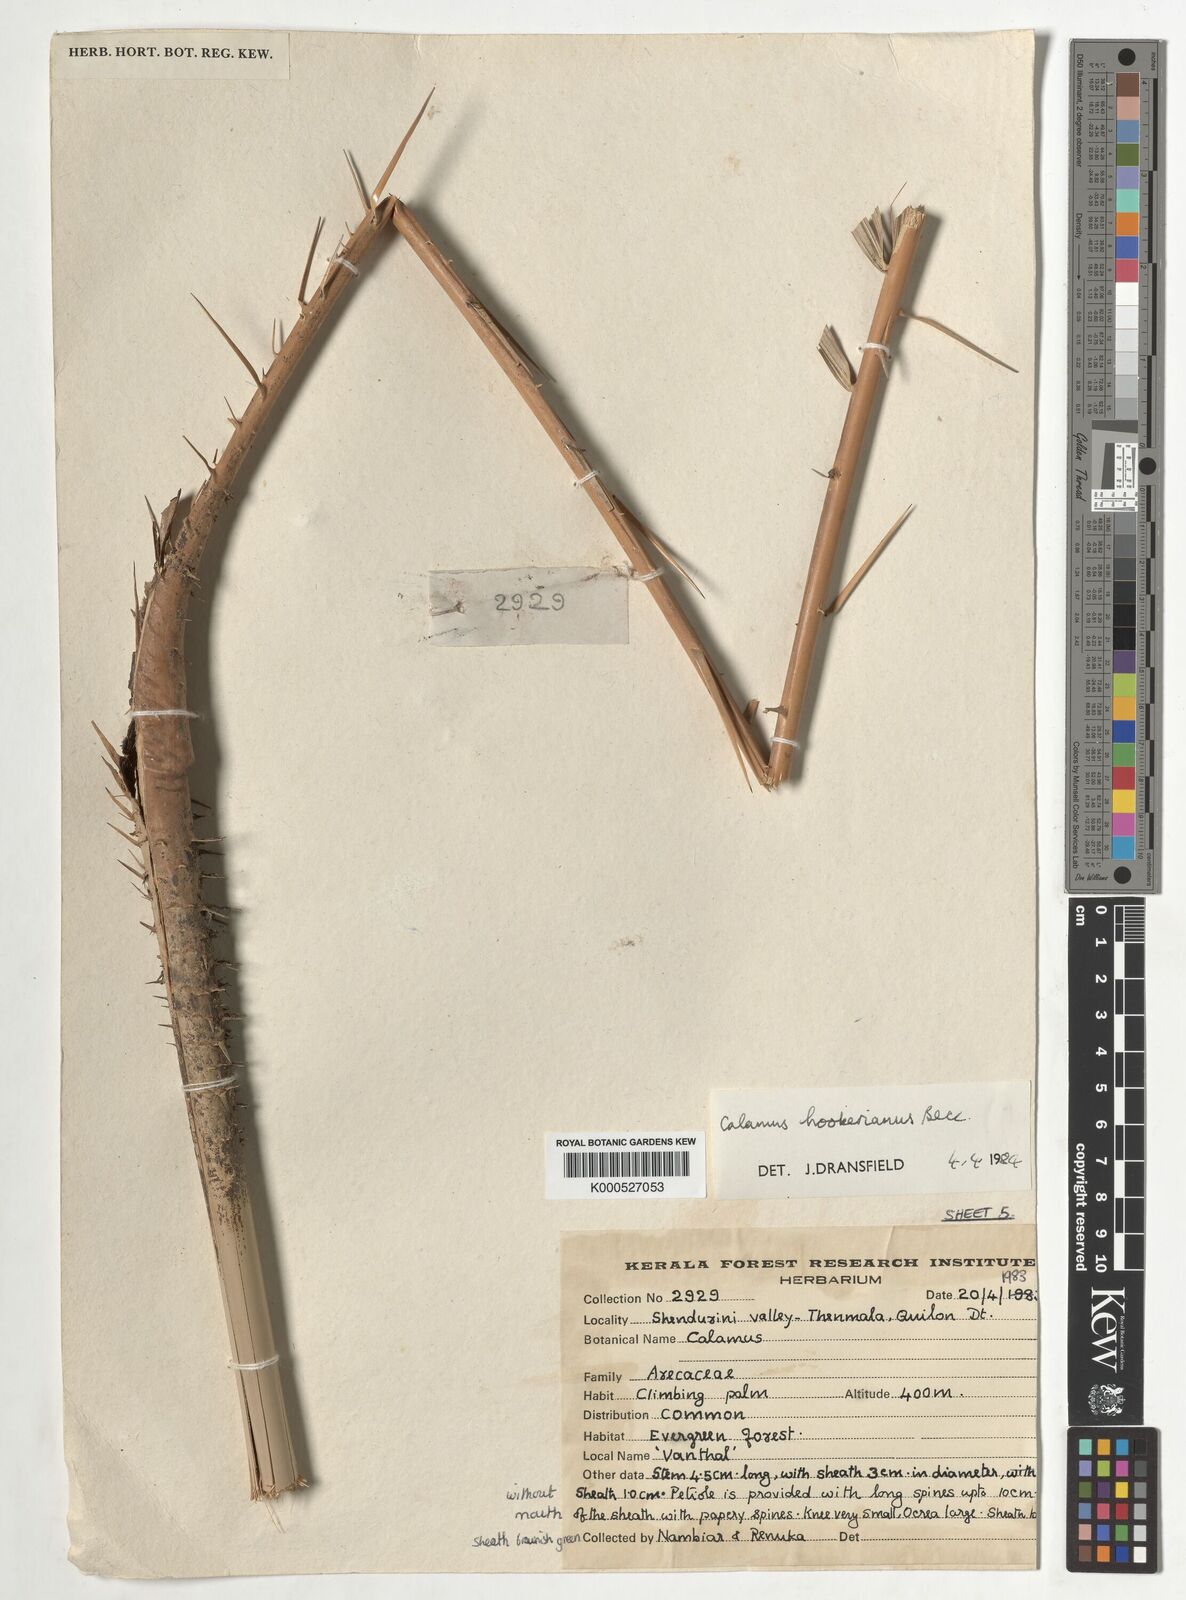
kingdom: Plantae
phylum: Tracheophyta
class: Liliopsida
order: Arecales
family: Arecaceae
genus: Calamus
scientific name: Calamus hookerianus
